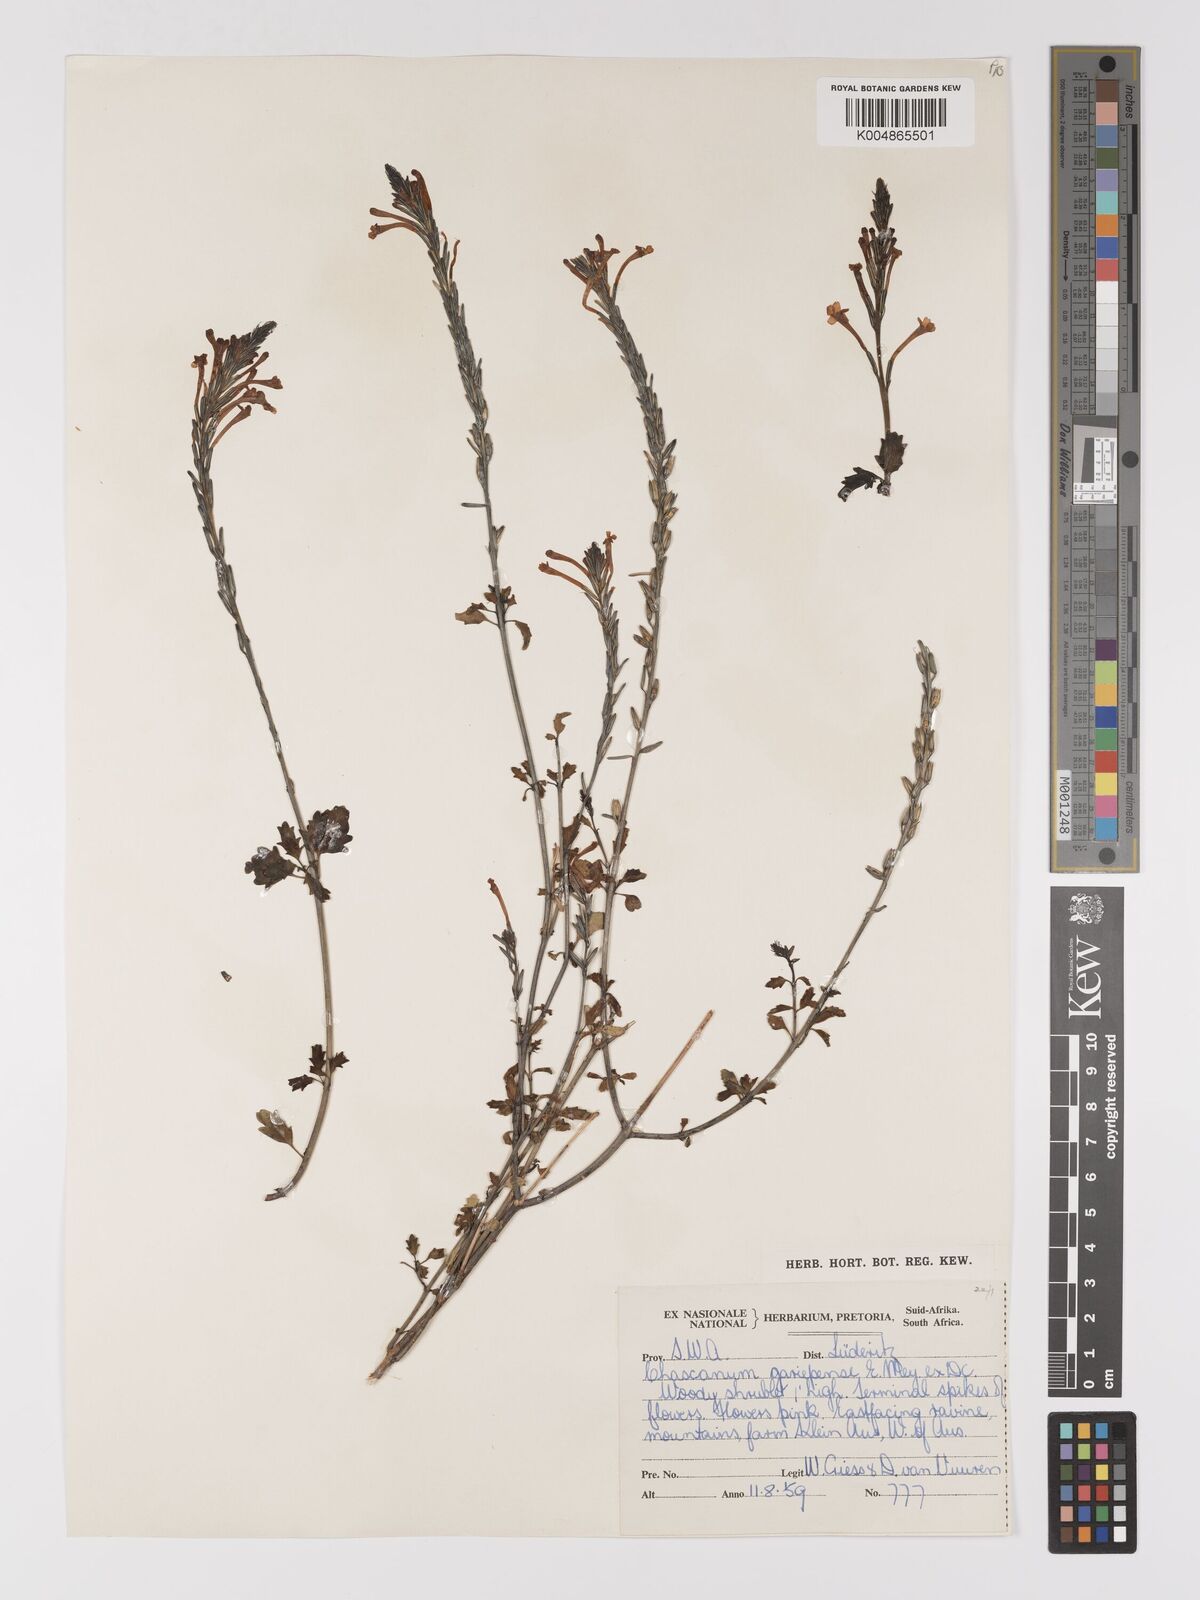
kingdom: Plantae
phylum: Tracheophyta
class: Magnoliopsida
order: Lamiales
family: Verbenaceae
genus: Chascanum
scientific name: Chascanum garipense
